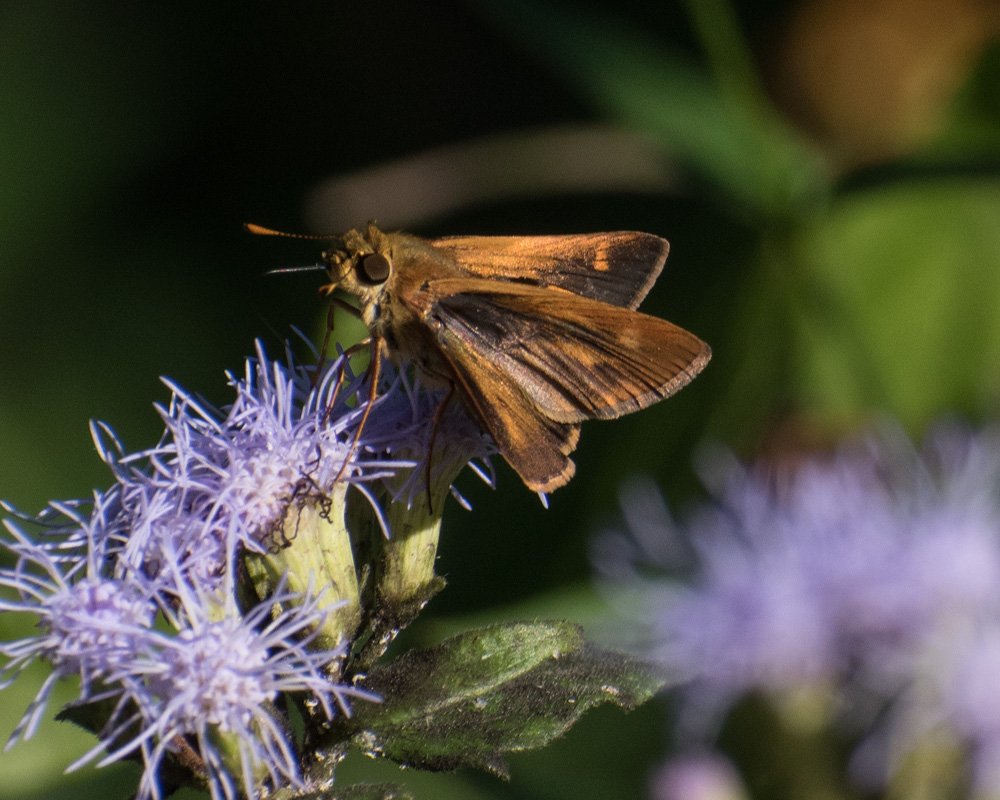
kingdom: Animalia
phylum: Arthropoda
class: Insecta
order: Lepidoptera
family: Hesperiidae
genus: Wallengrenia
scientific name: Wallengrenia otho
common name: Southern Broken-Dash
